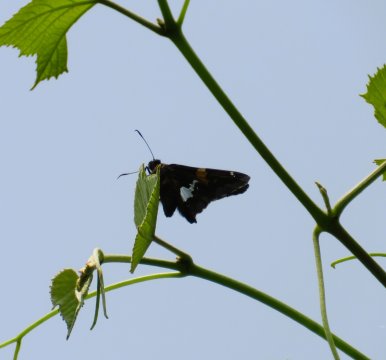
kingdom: Animalia
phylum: Arthropoda
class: Insecta
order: Lepidoptera
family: Hesperiidae
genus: Epargyreus
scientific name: Epargyreus clarus
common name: Silver-spotted Skipper
